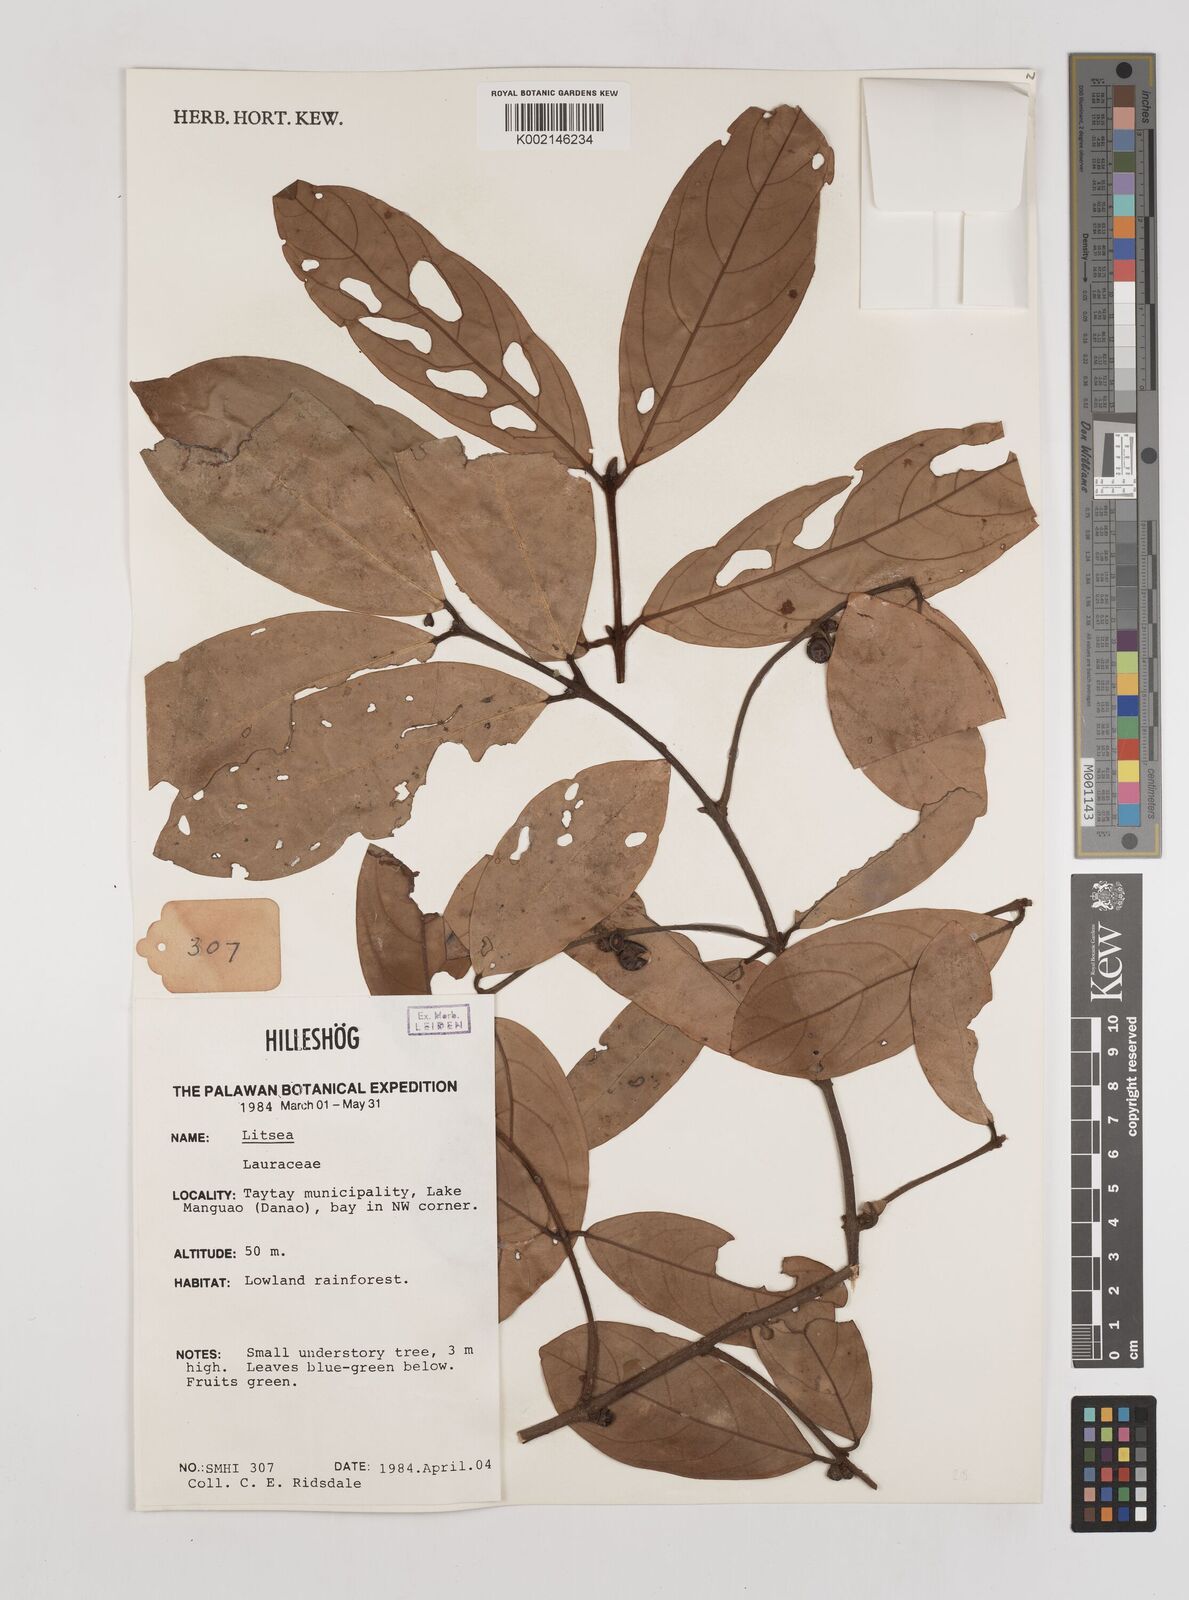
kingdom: Plantae
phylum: Tracheophyta
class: Magnoliopsida
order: Laurales
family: Lauraceae
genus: Litsea
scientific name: Litsea
